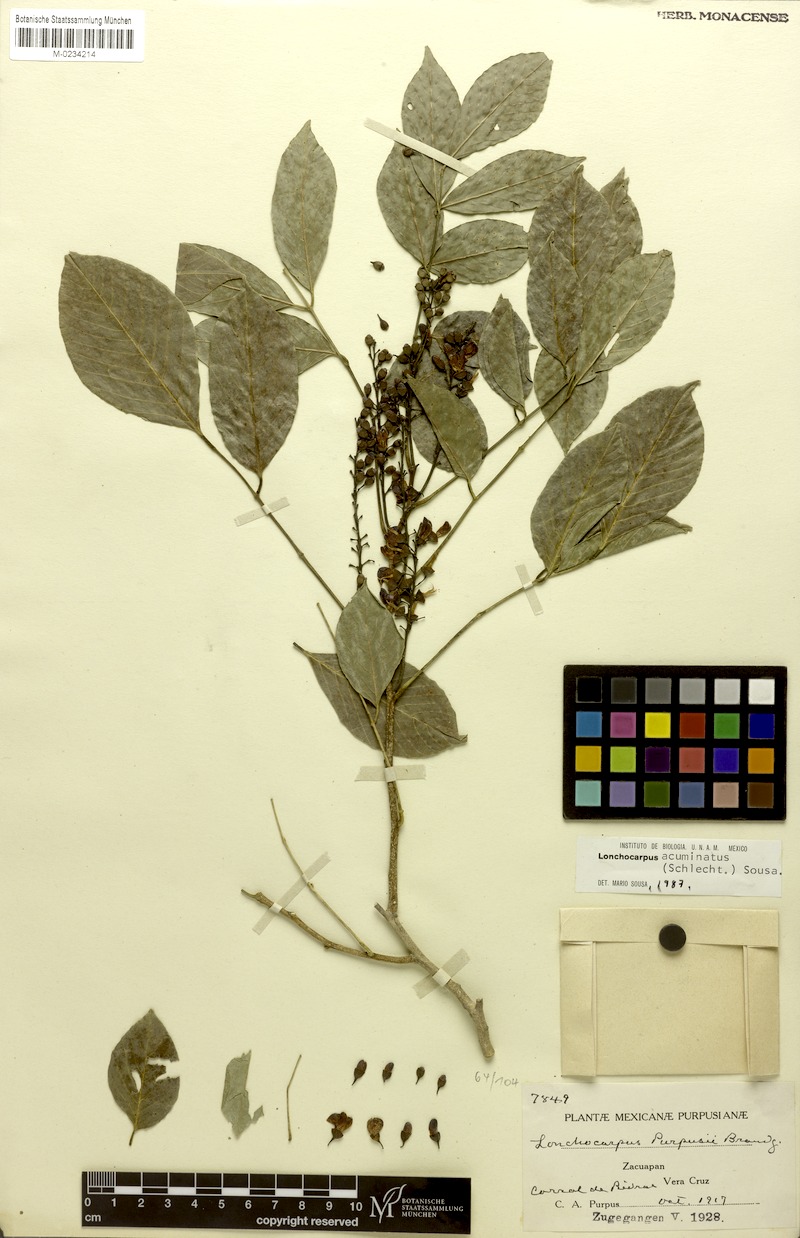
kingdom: Plantae
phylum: Tracheophyta
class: Magnoliopsida
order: Fabales
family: Fabaceae
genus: Lonchocarpus
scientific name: Lonchocarpus acuminatus
